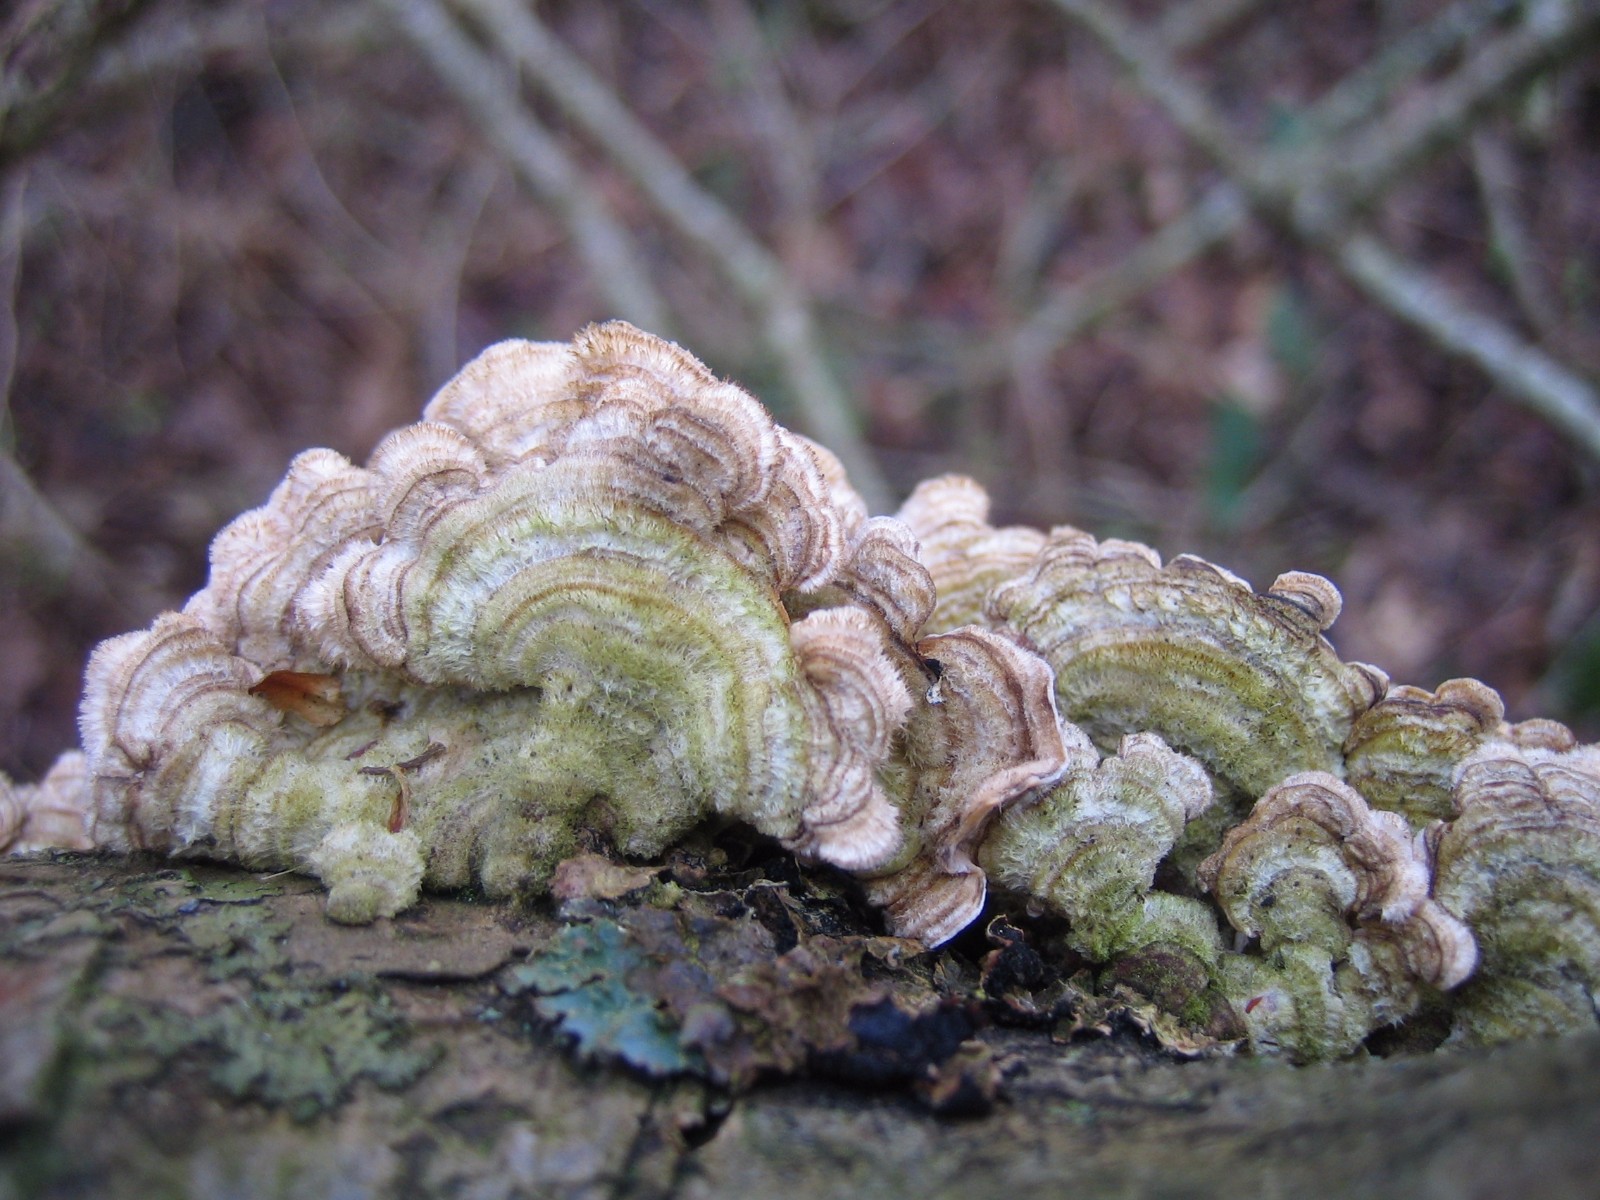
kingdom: Fungi
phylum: Basidiomycota
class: Agaricomycetes
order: Russulales
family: Stereaceae
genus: Stereum
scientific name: Stereum hirsutum
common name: håret lædersvamp
